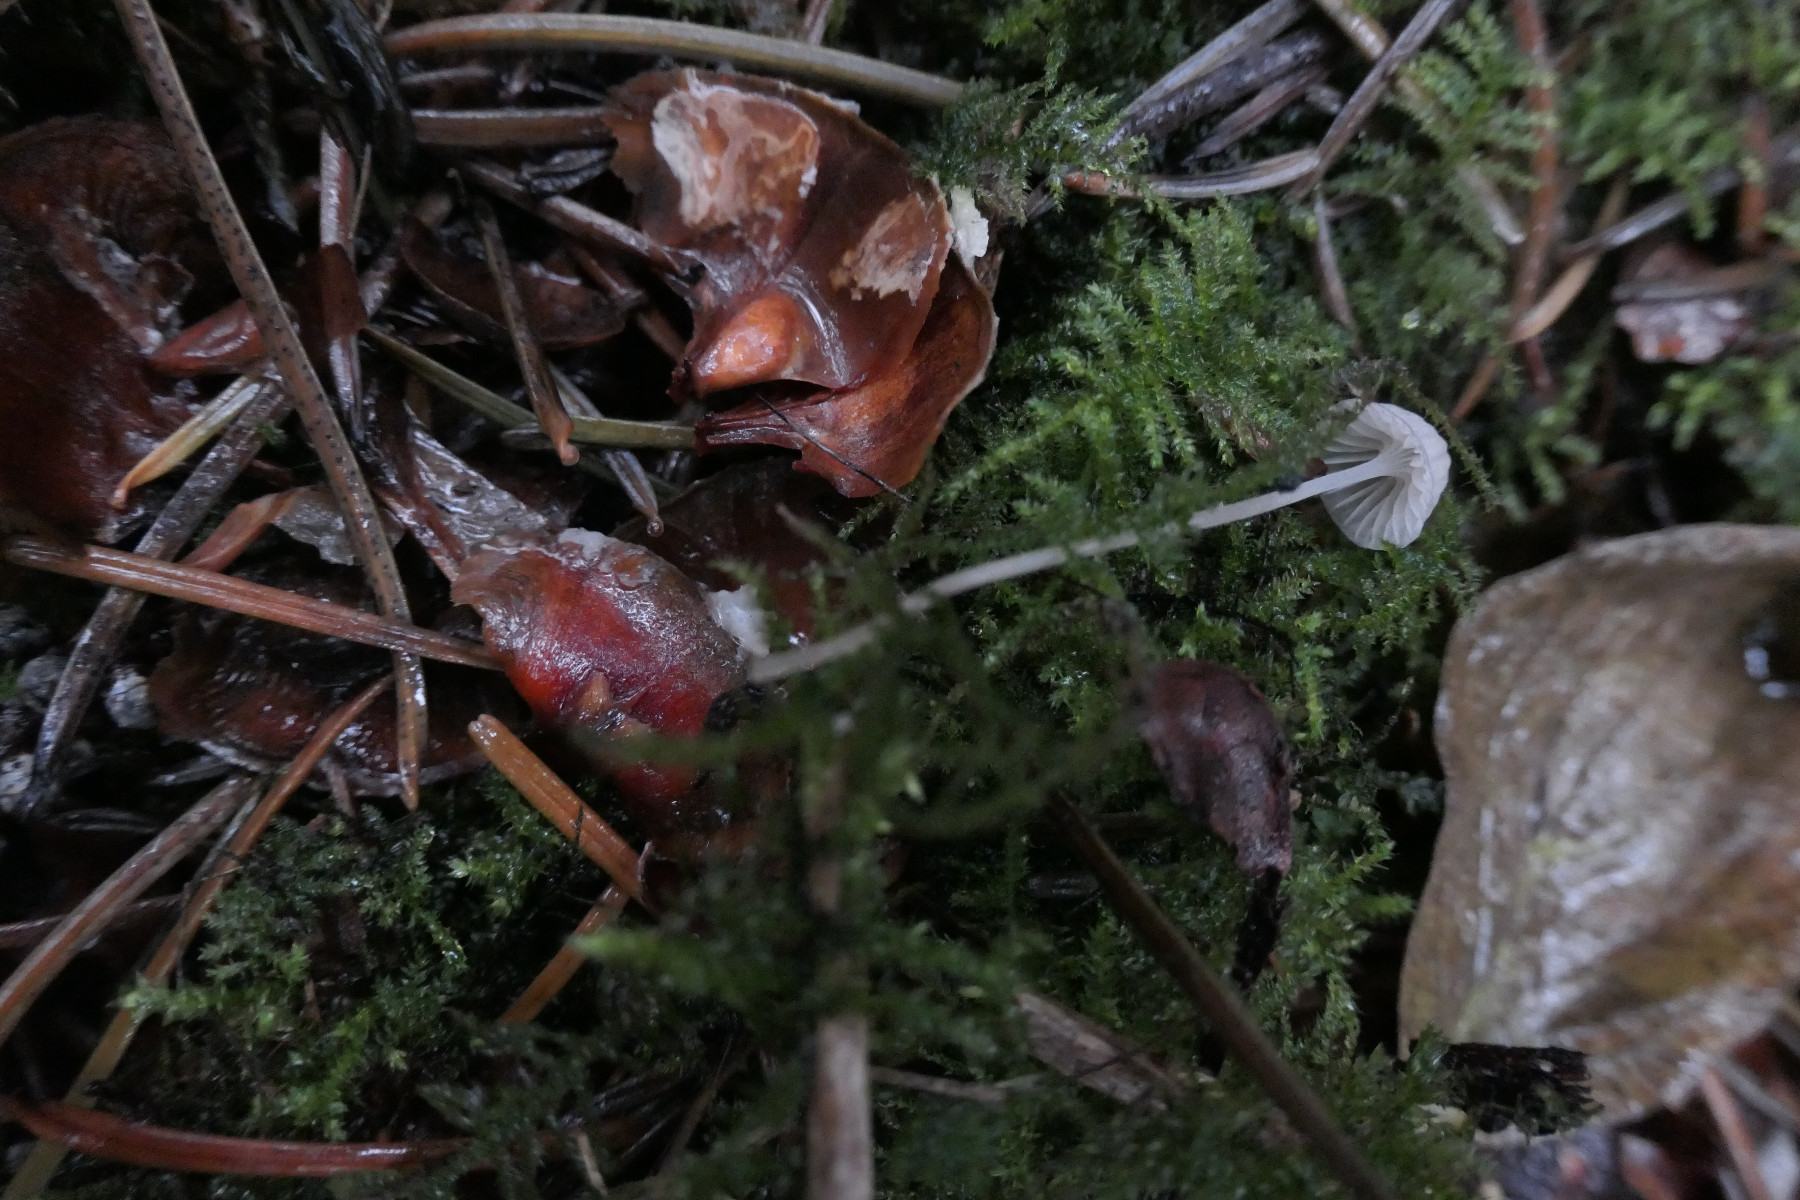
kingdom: Fungi
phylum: Basidiomycota
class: Agaricomycetes
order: Agaricales
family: Mycenaceae
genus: Mycena
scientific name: Mycena cinerella
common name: mel-huesvamp
